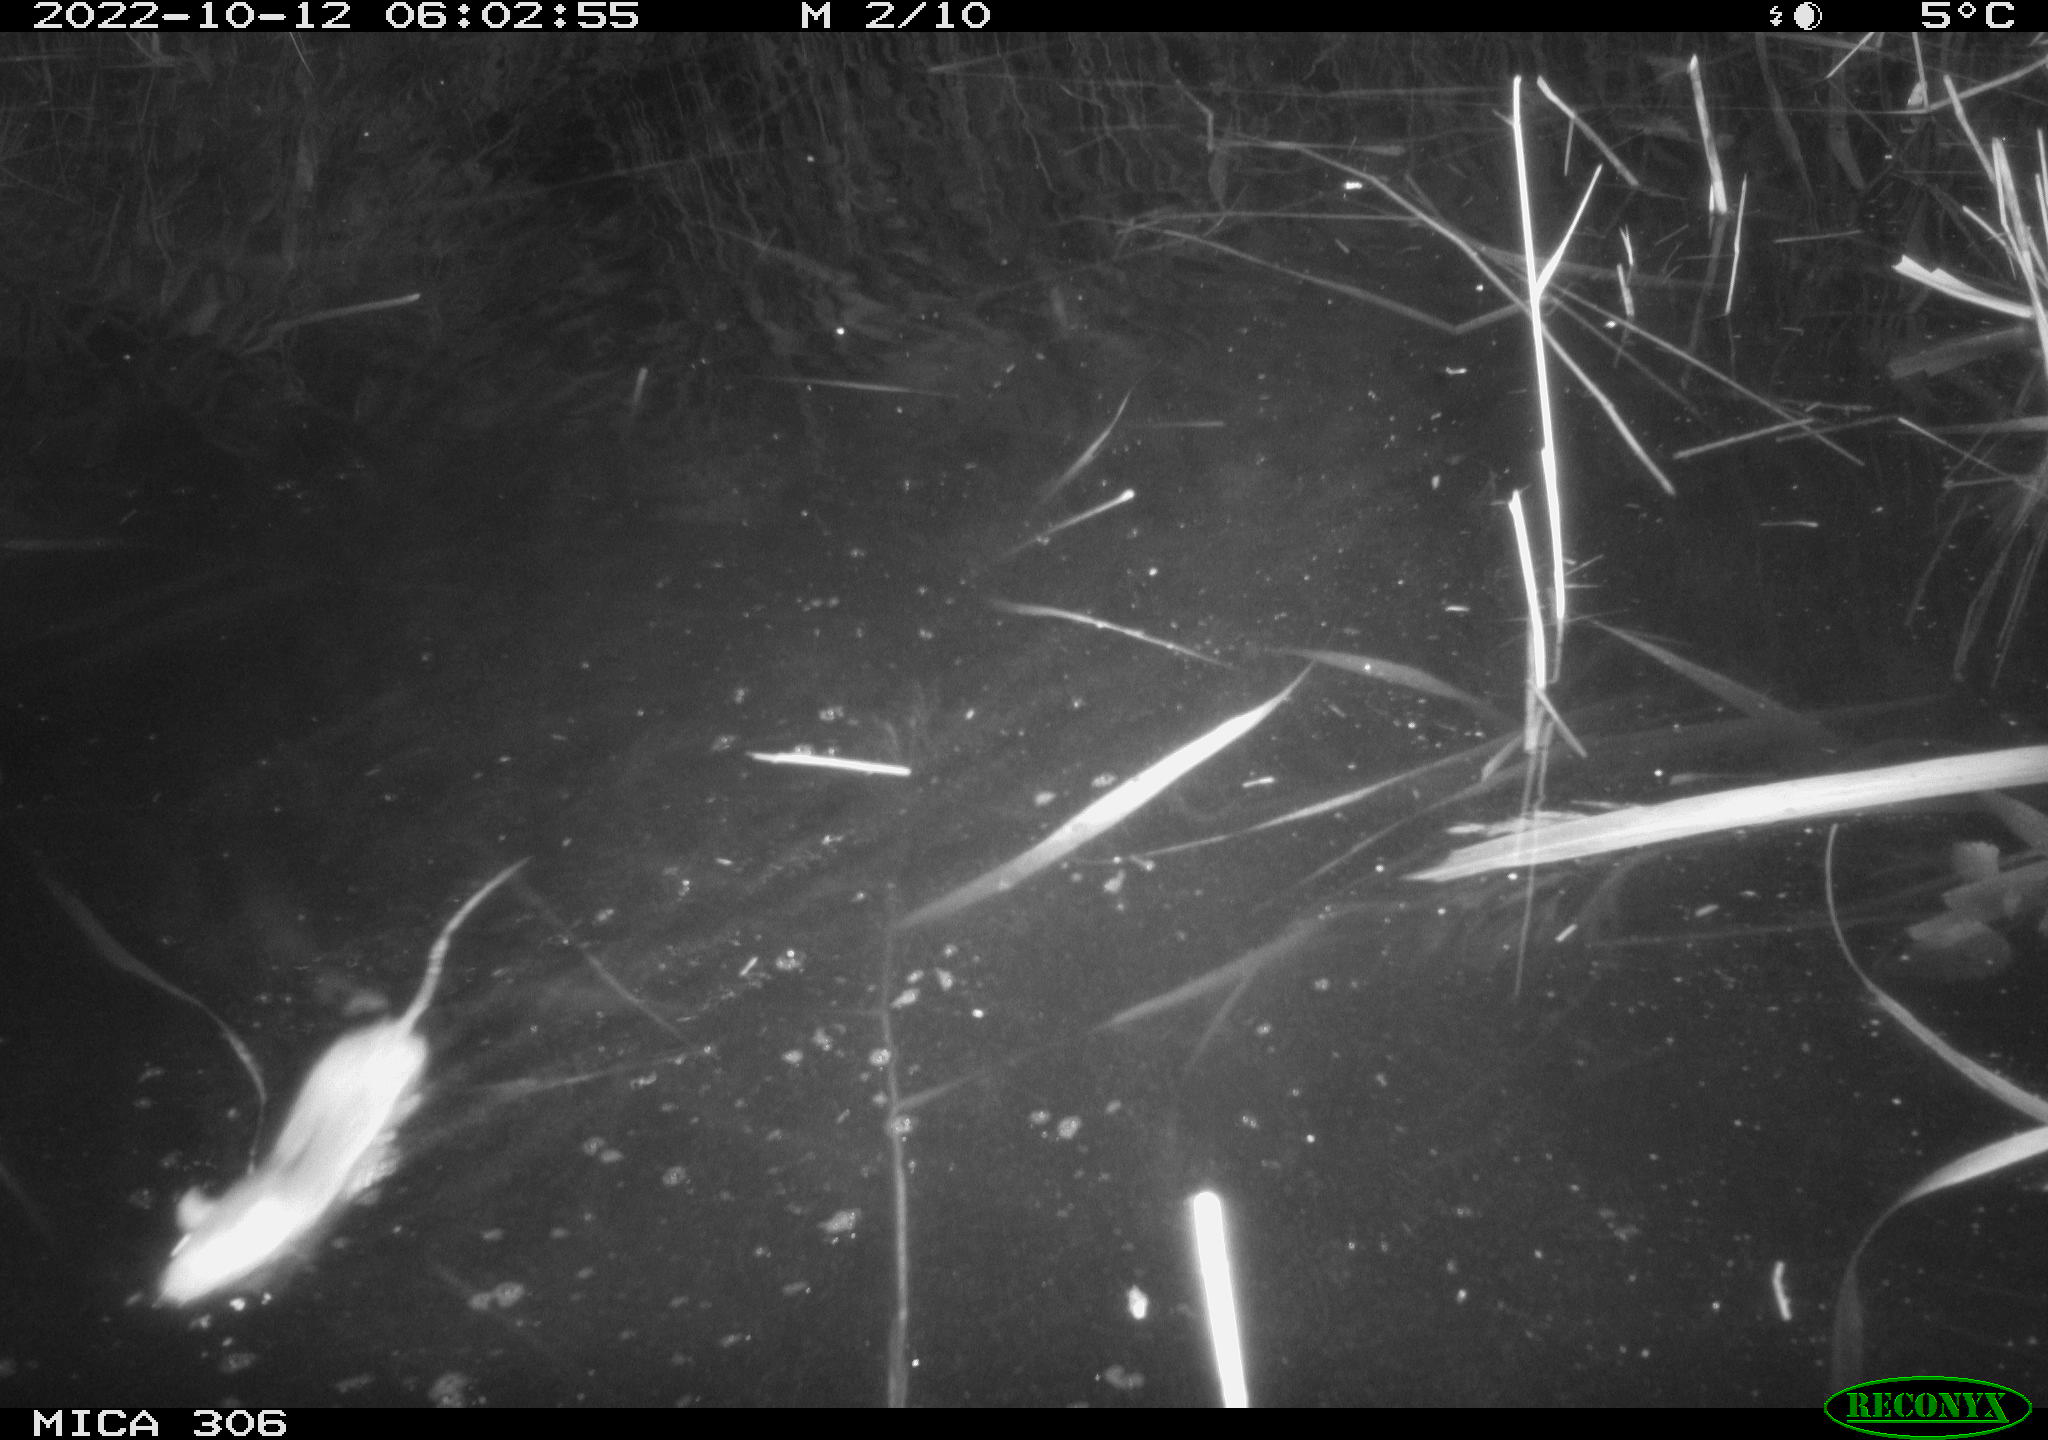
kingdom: Animalia
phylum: Chordata
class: Mammalia
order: Rodentia
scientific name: Rodentia
